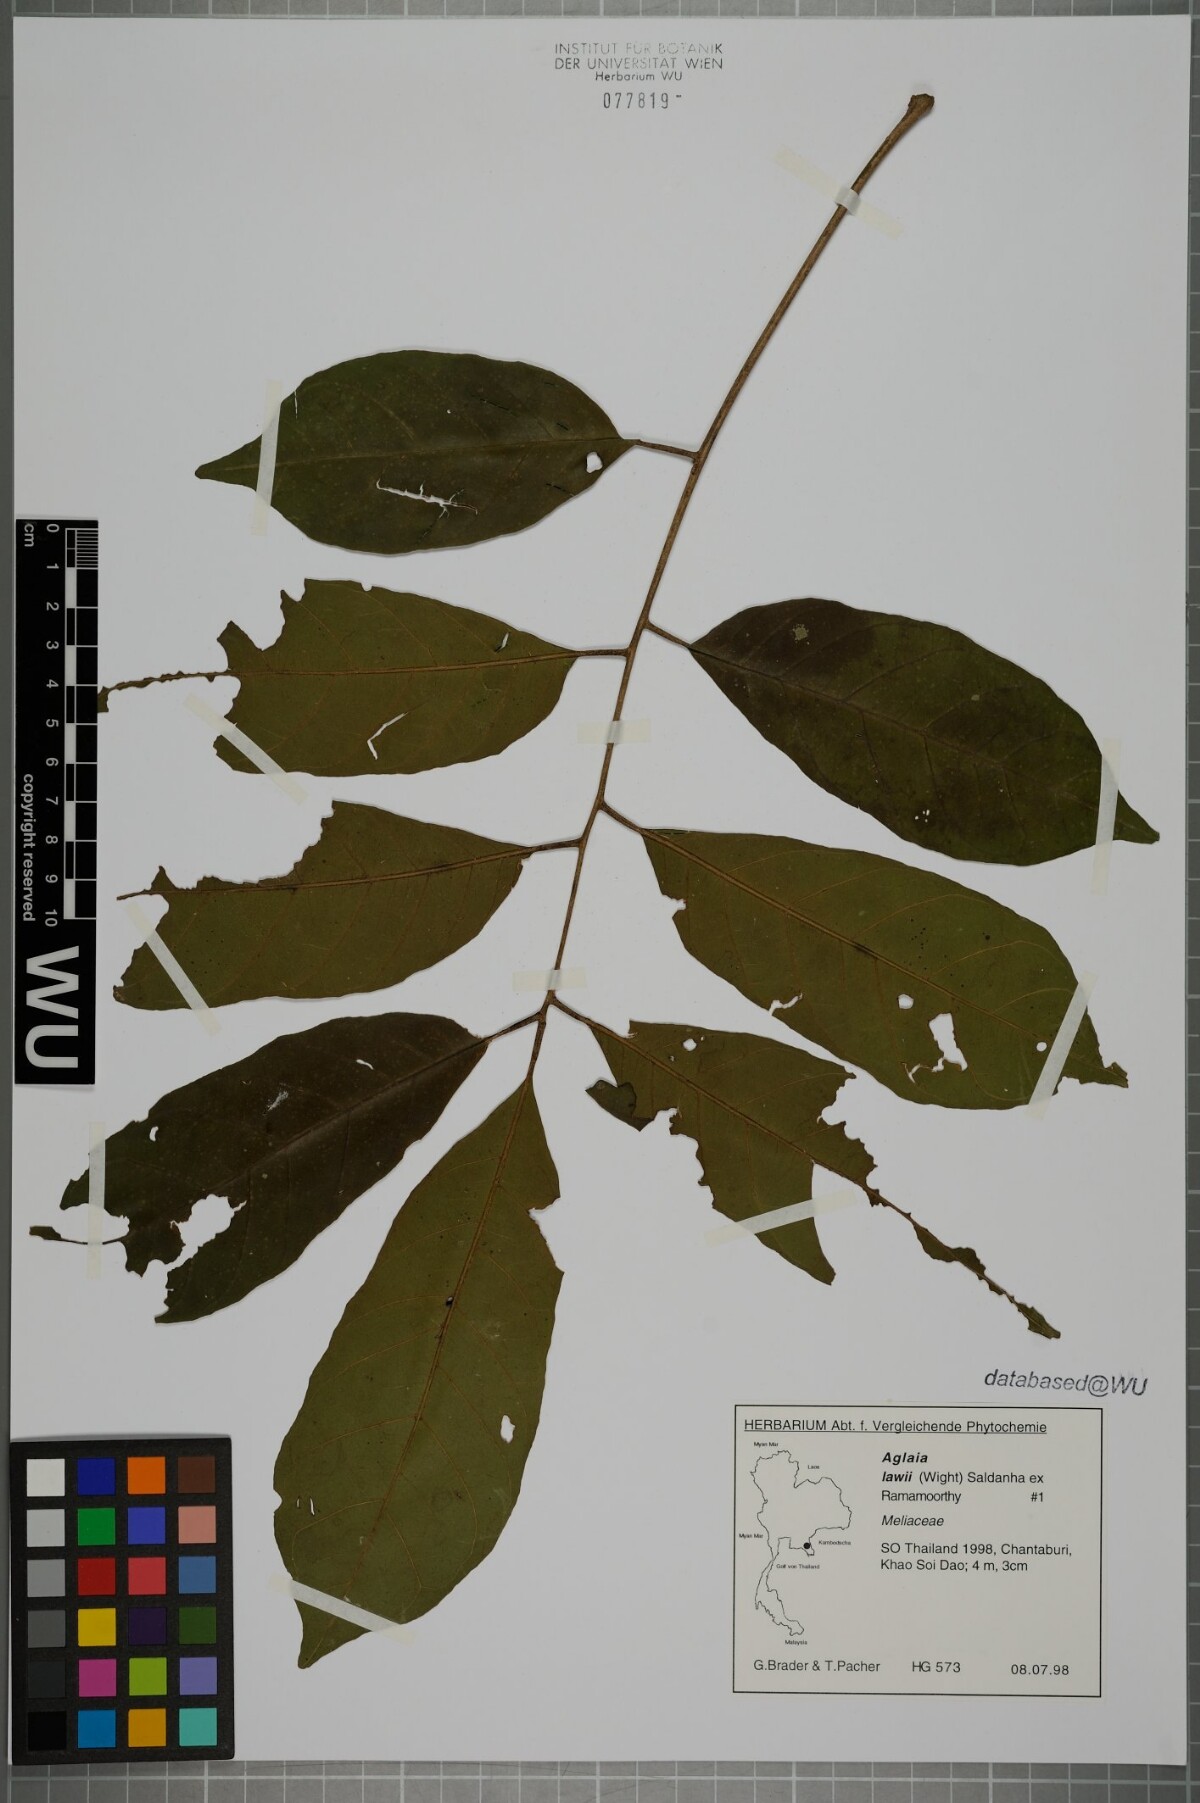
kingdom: Plantae
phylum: Tracheophyta
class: Magnoliopsida
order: Sapindales
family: Meliaceae
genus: Aglaia
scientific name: Aglaia lawii
